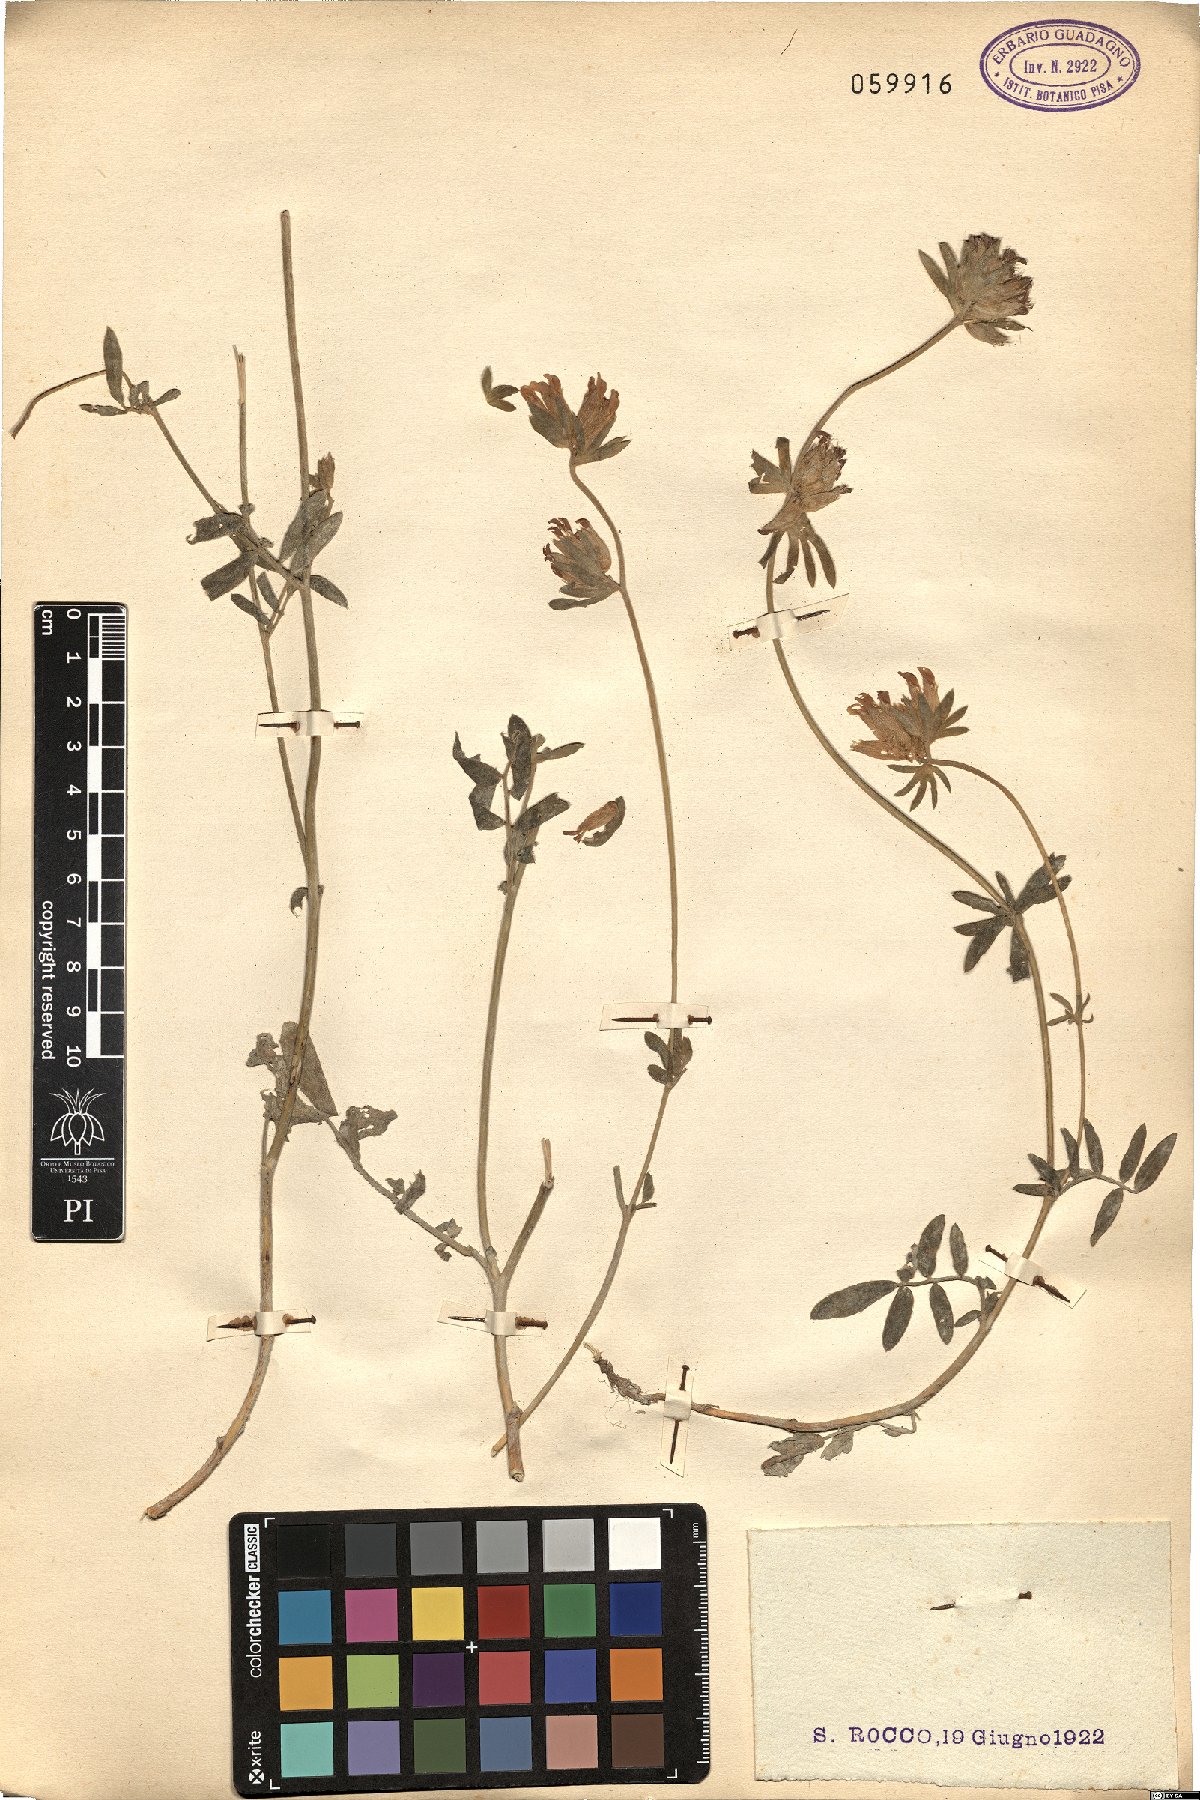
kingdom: Plantae
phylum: Tracheophyta
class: Magnoliopsida
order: Fabales
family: Fabaceae
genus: Anthyllis
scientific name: Anthyllis vulneraria
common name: Kidney vetch
